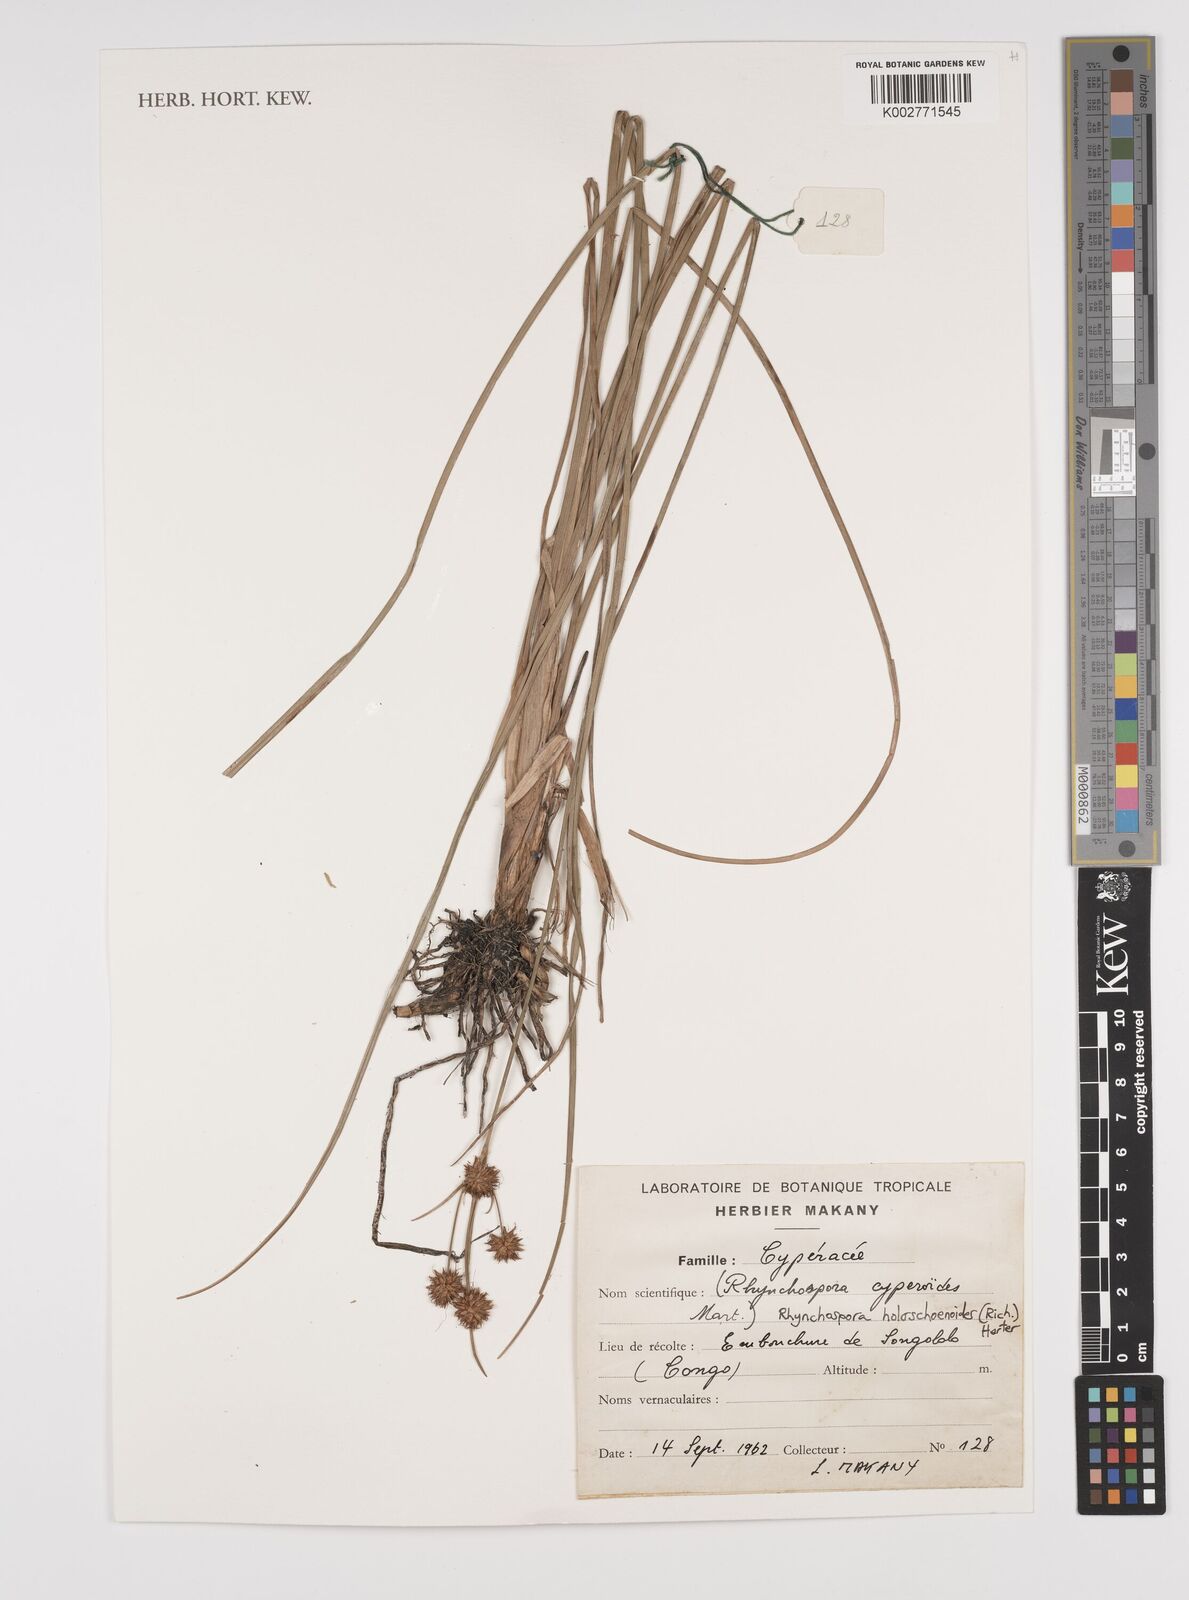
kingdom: Plantae
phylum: Tracheophyta
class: Liliopsida
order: Poales
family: Cyperaceae
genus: Rhynchospora
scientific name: Rhynchospora holoschoenoides
